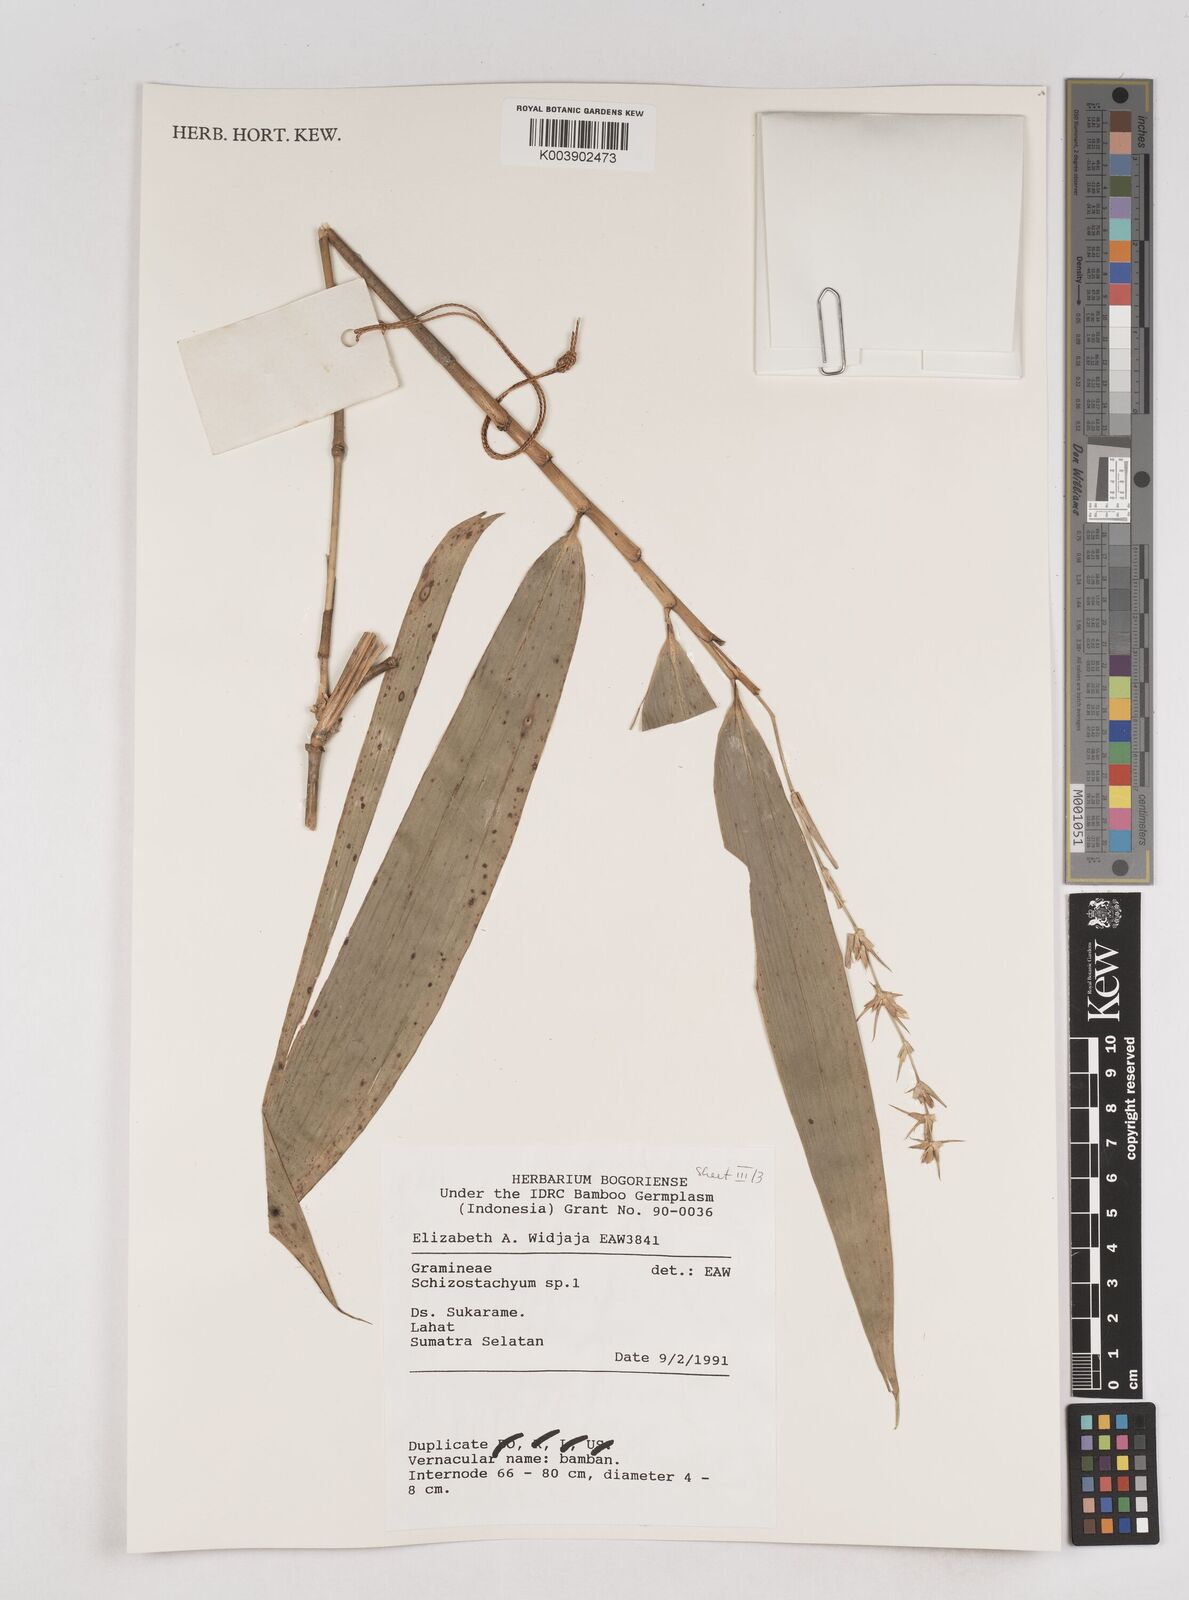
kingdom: Plantae
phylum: Tracheophyta
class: Liliopsida
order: Poales
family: Poaceae
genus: Schizostachyum
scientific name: Schizostachyum
